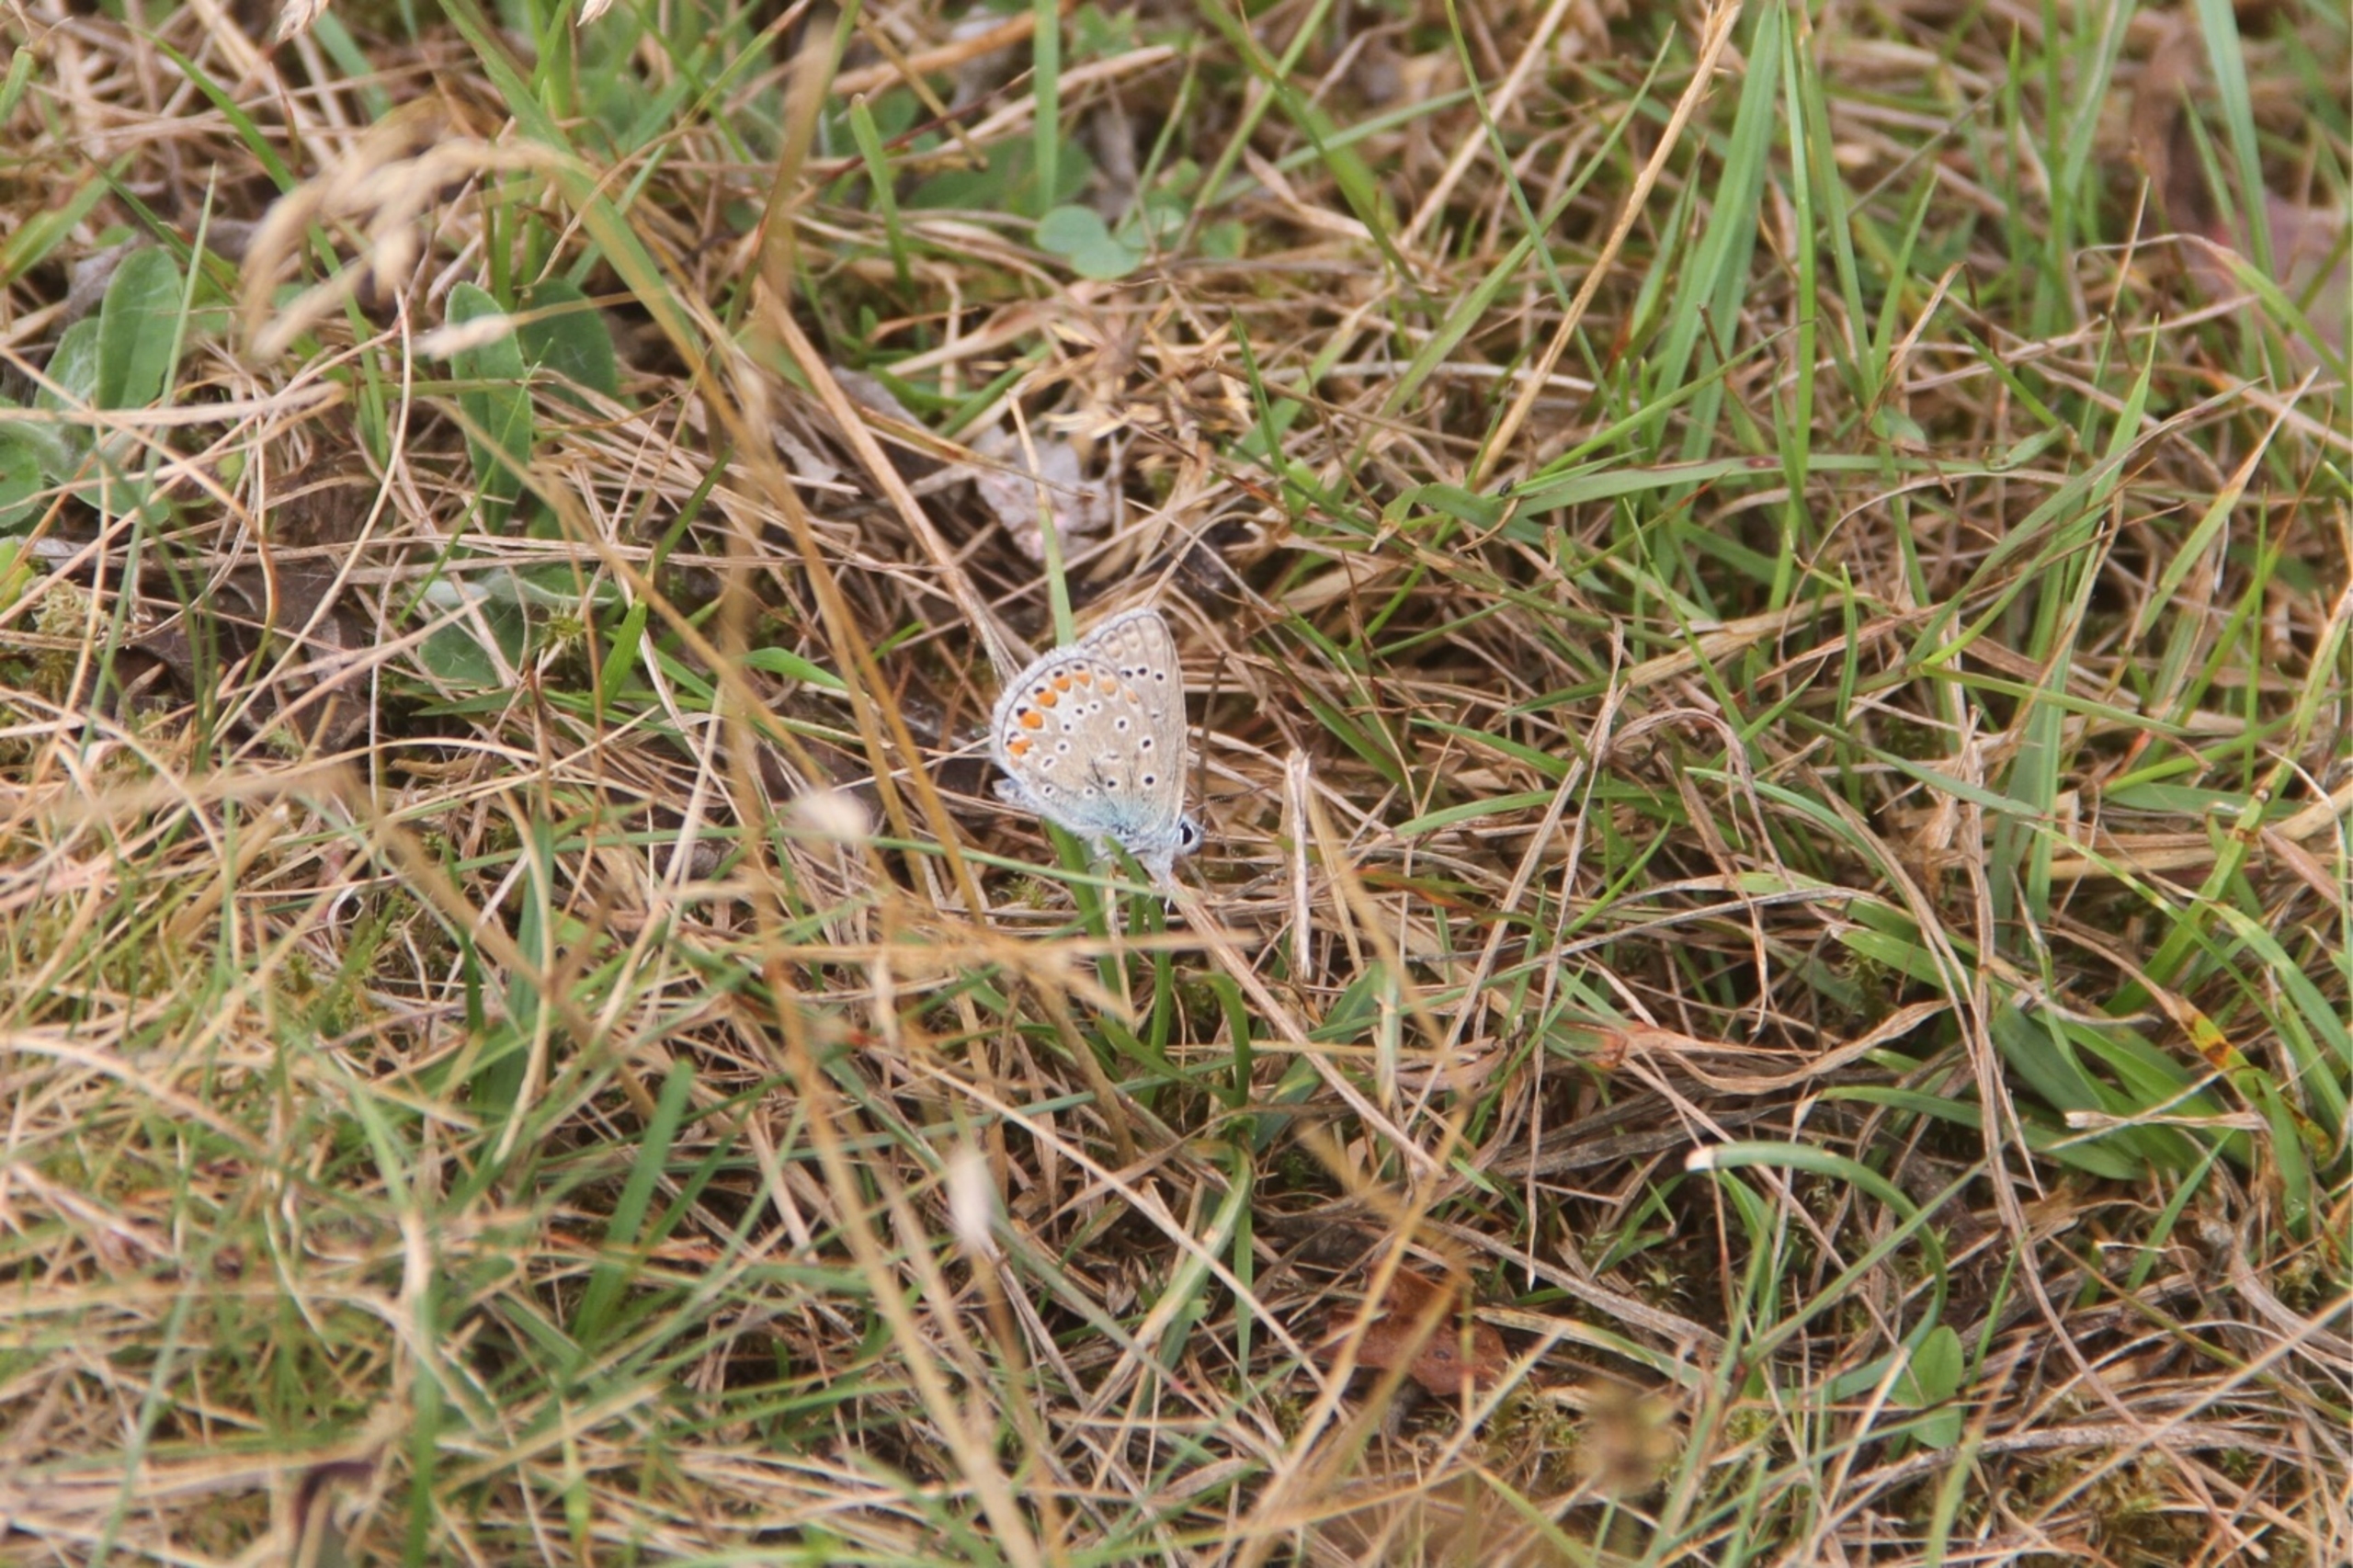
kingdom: Animalia
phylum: Arthropoda
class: Insecta
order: Lepidoptera
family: Lycaenidae
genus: Polyommatus
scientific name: Polyommatus icarus
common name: Almindelig blåfugl
